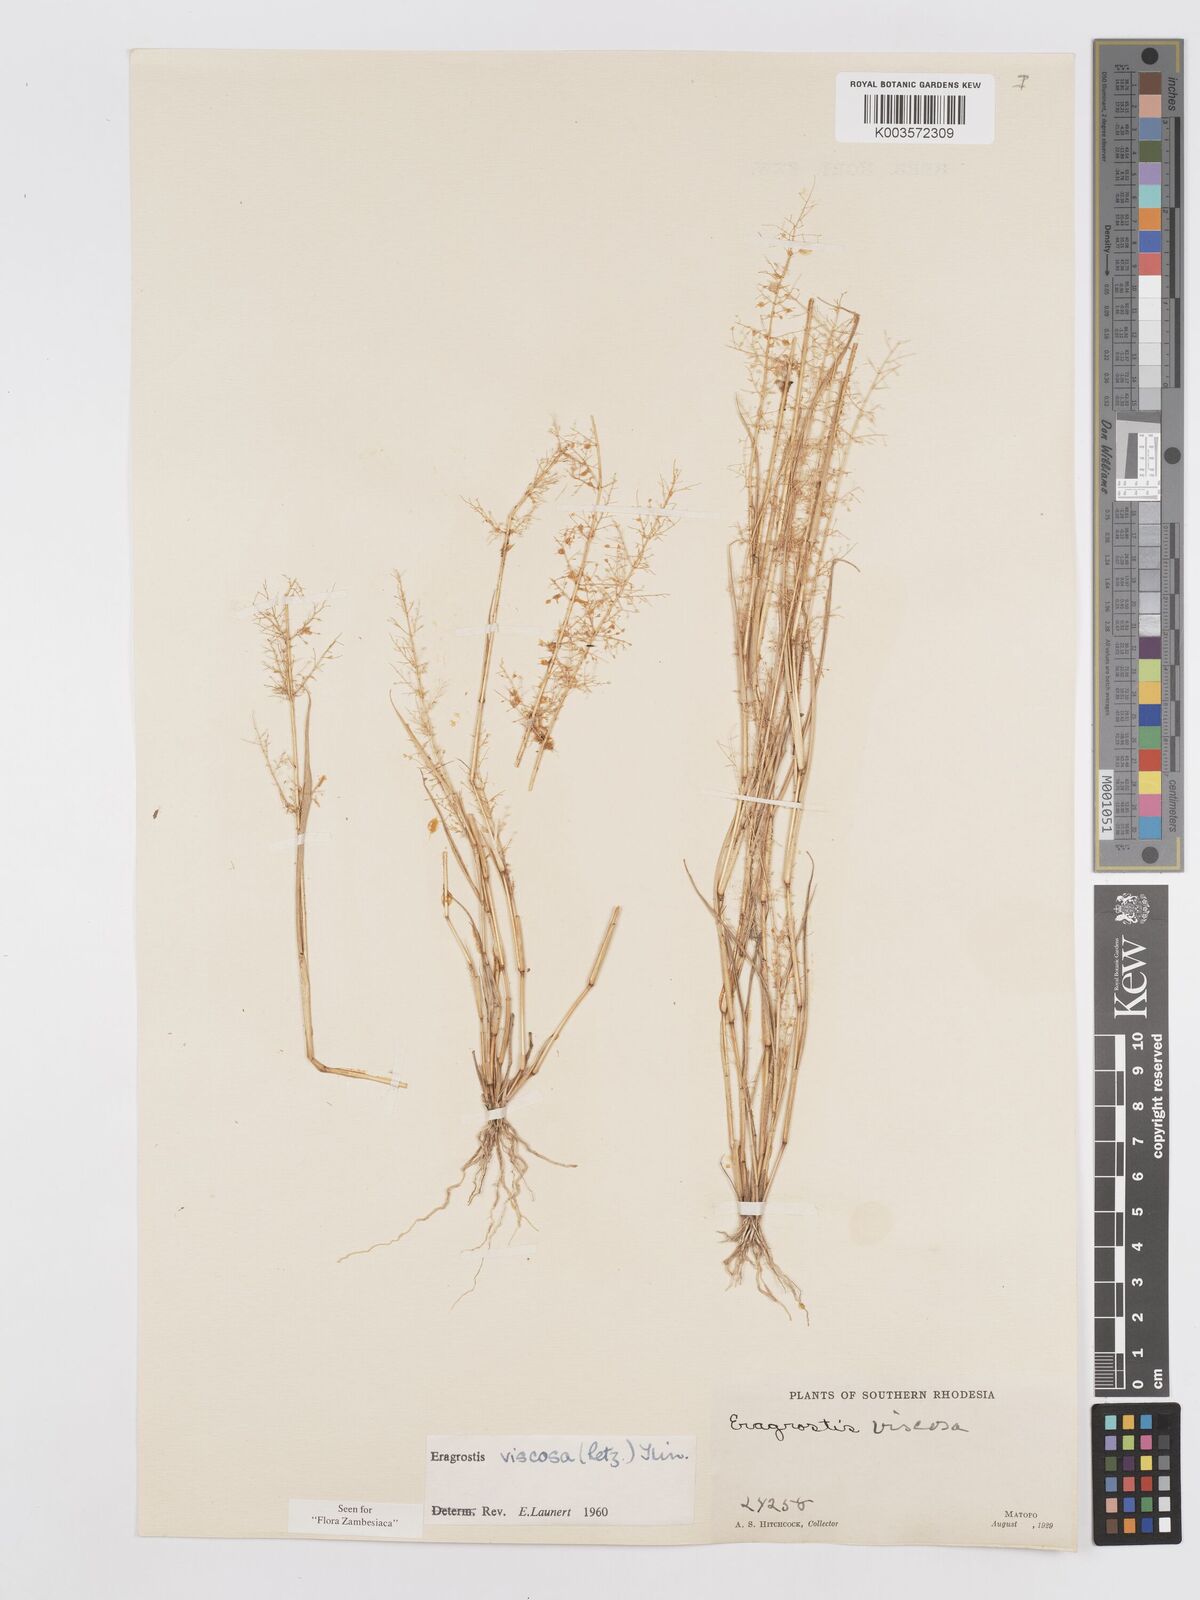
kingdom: Plantae
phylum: Tracheophyta
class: Liliopsida
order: Poales
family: Poaceae
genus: Eragrostis
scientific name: Eragrostis
